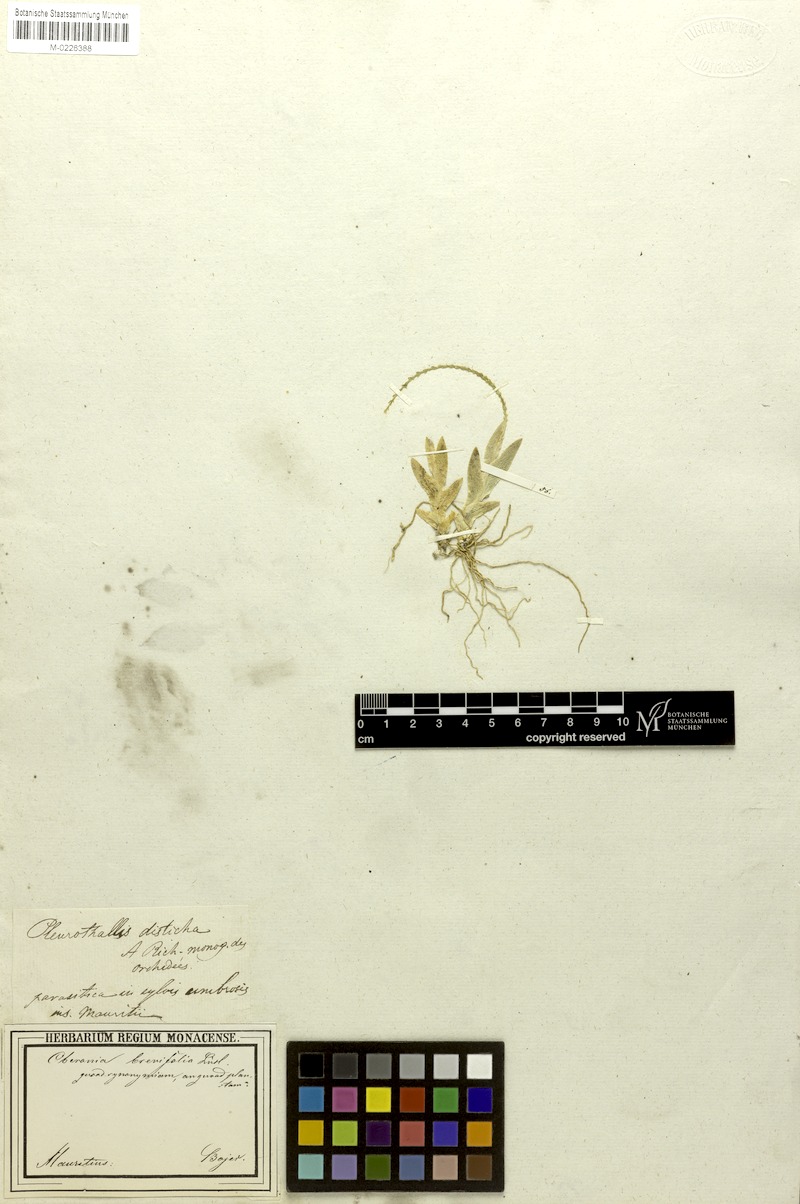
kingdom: Plantae
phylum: Tracheophyta
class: Liliopsida
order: Asparagales
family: Orchidaceae
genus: Oberonia
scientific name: Oberonia disticha
